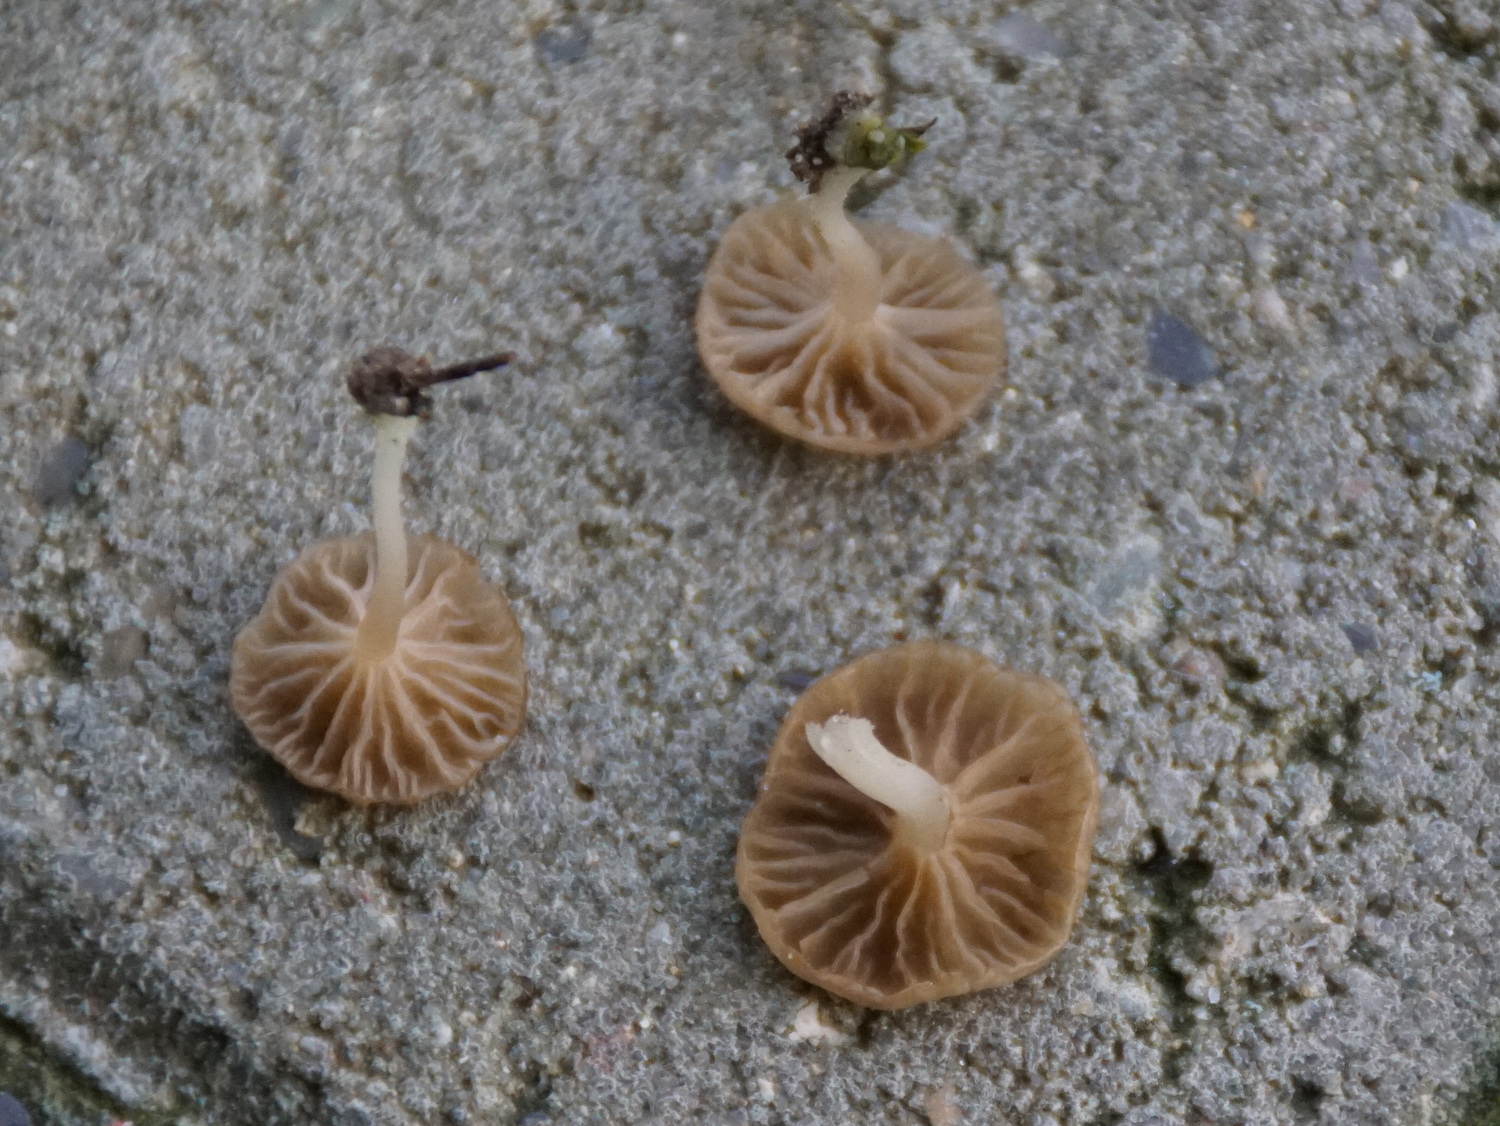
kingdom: Fungi
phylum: Basidiomycota
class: Agaricomycetes
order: Agaricales
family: Hygrophoraceae
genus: Arrhenia
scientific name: Arrhenia peltigerina
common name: skjoldlav-fontænehat
